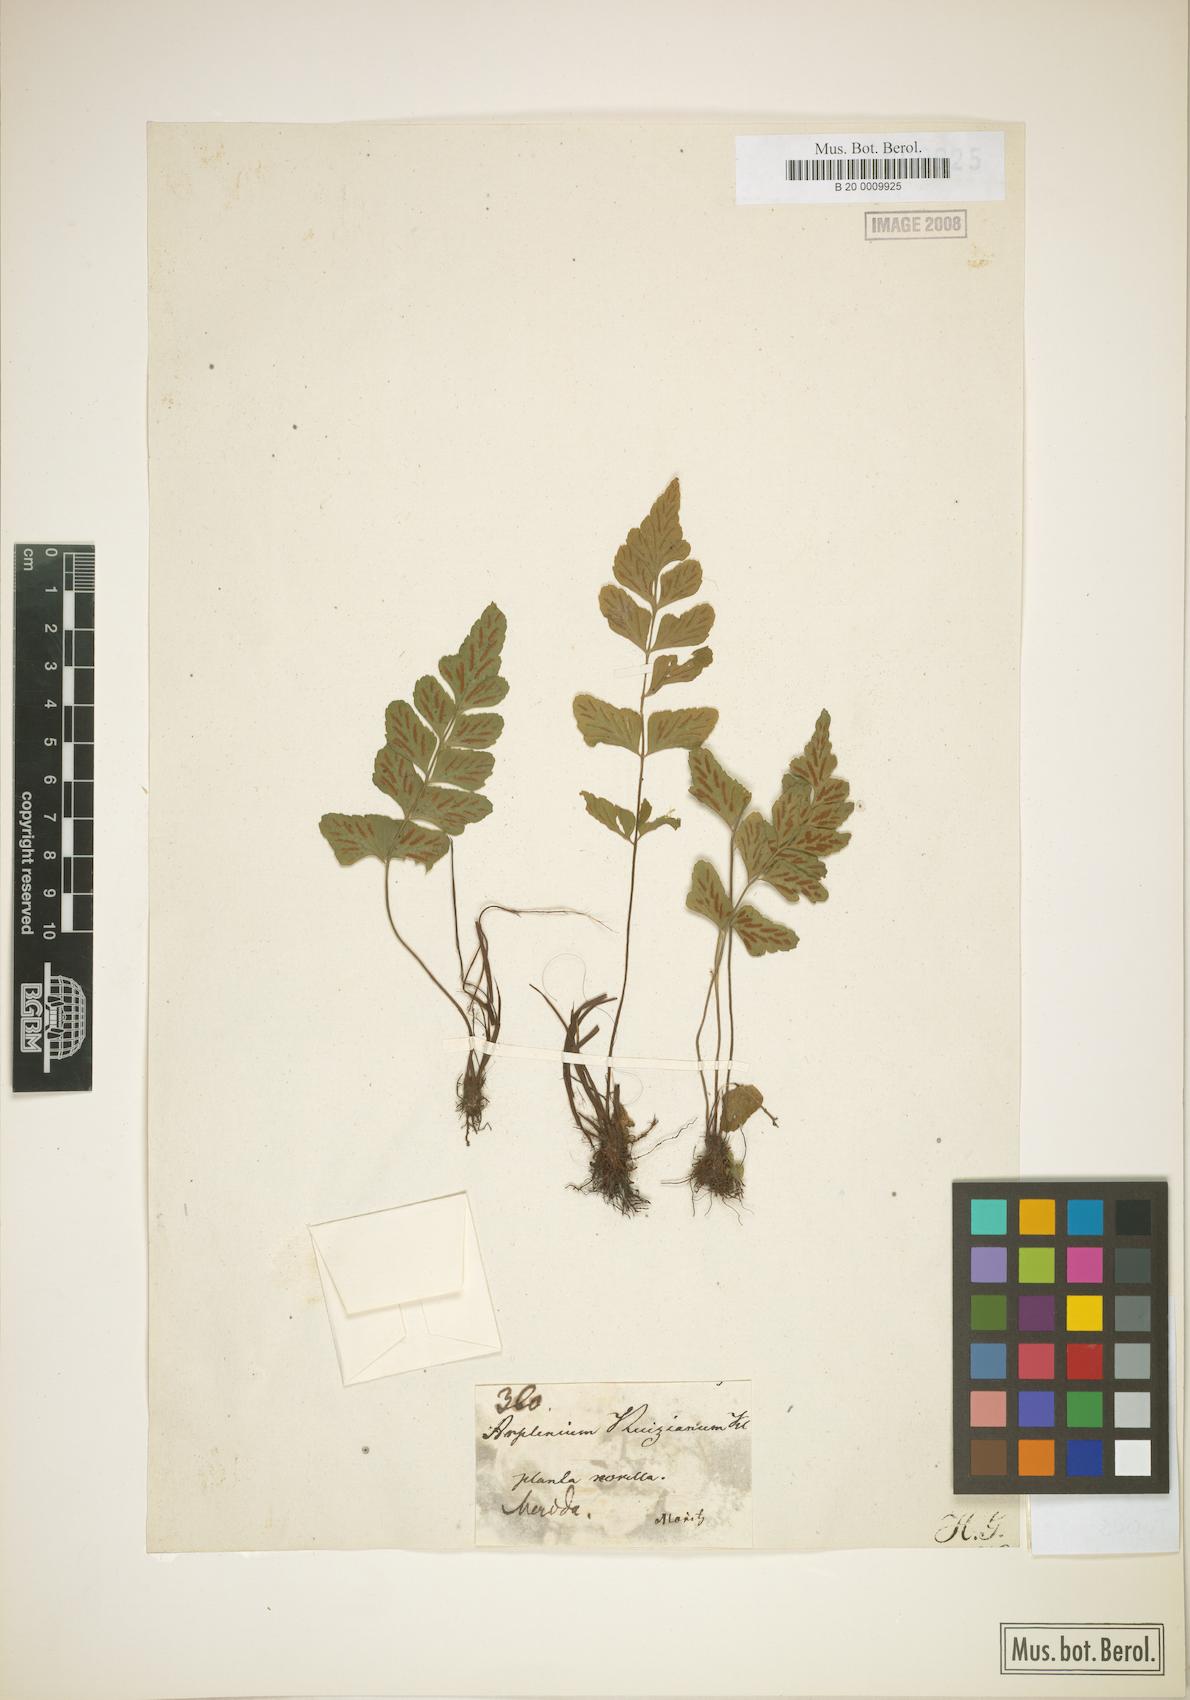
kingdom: Plantae
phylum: Tracheophyta
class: Polypodiopsida
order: Polypodiales
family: Aspleniaceae
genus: Asplenium
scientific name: Asplenium ruizianum
